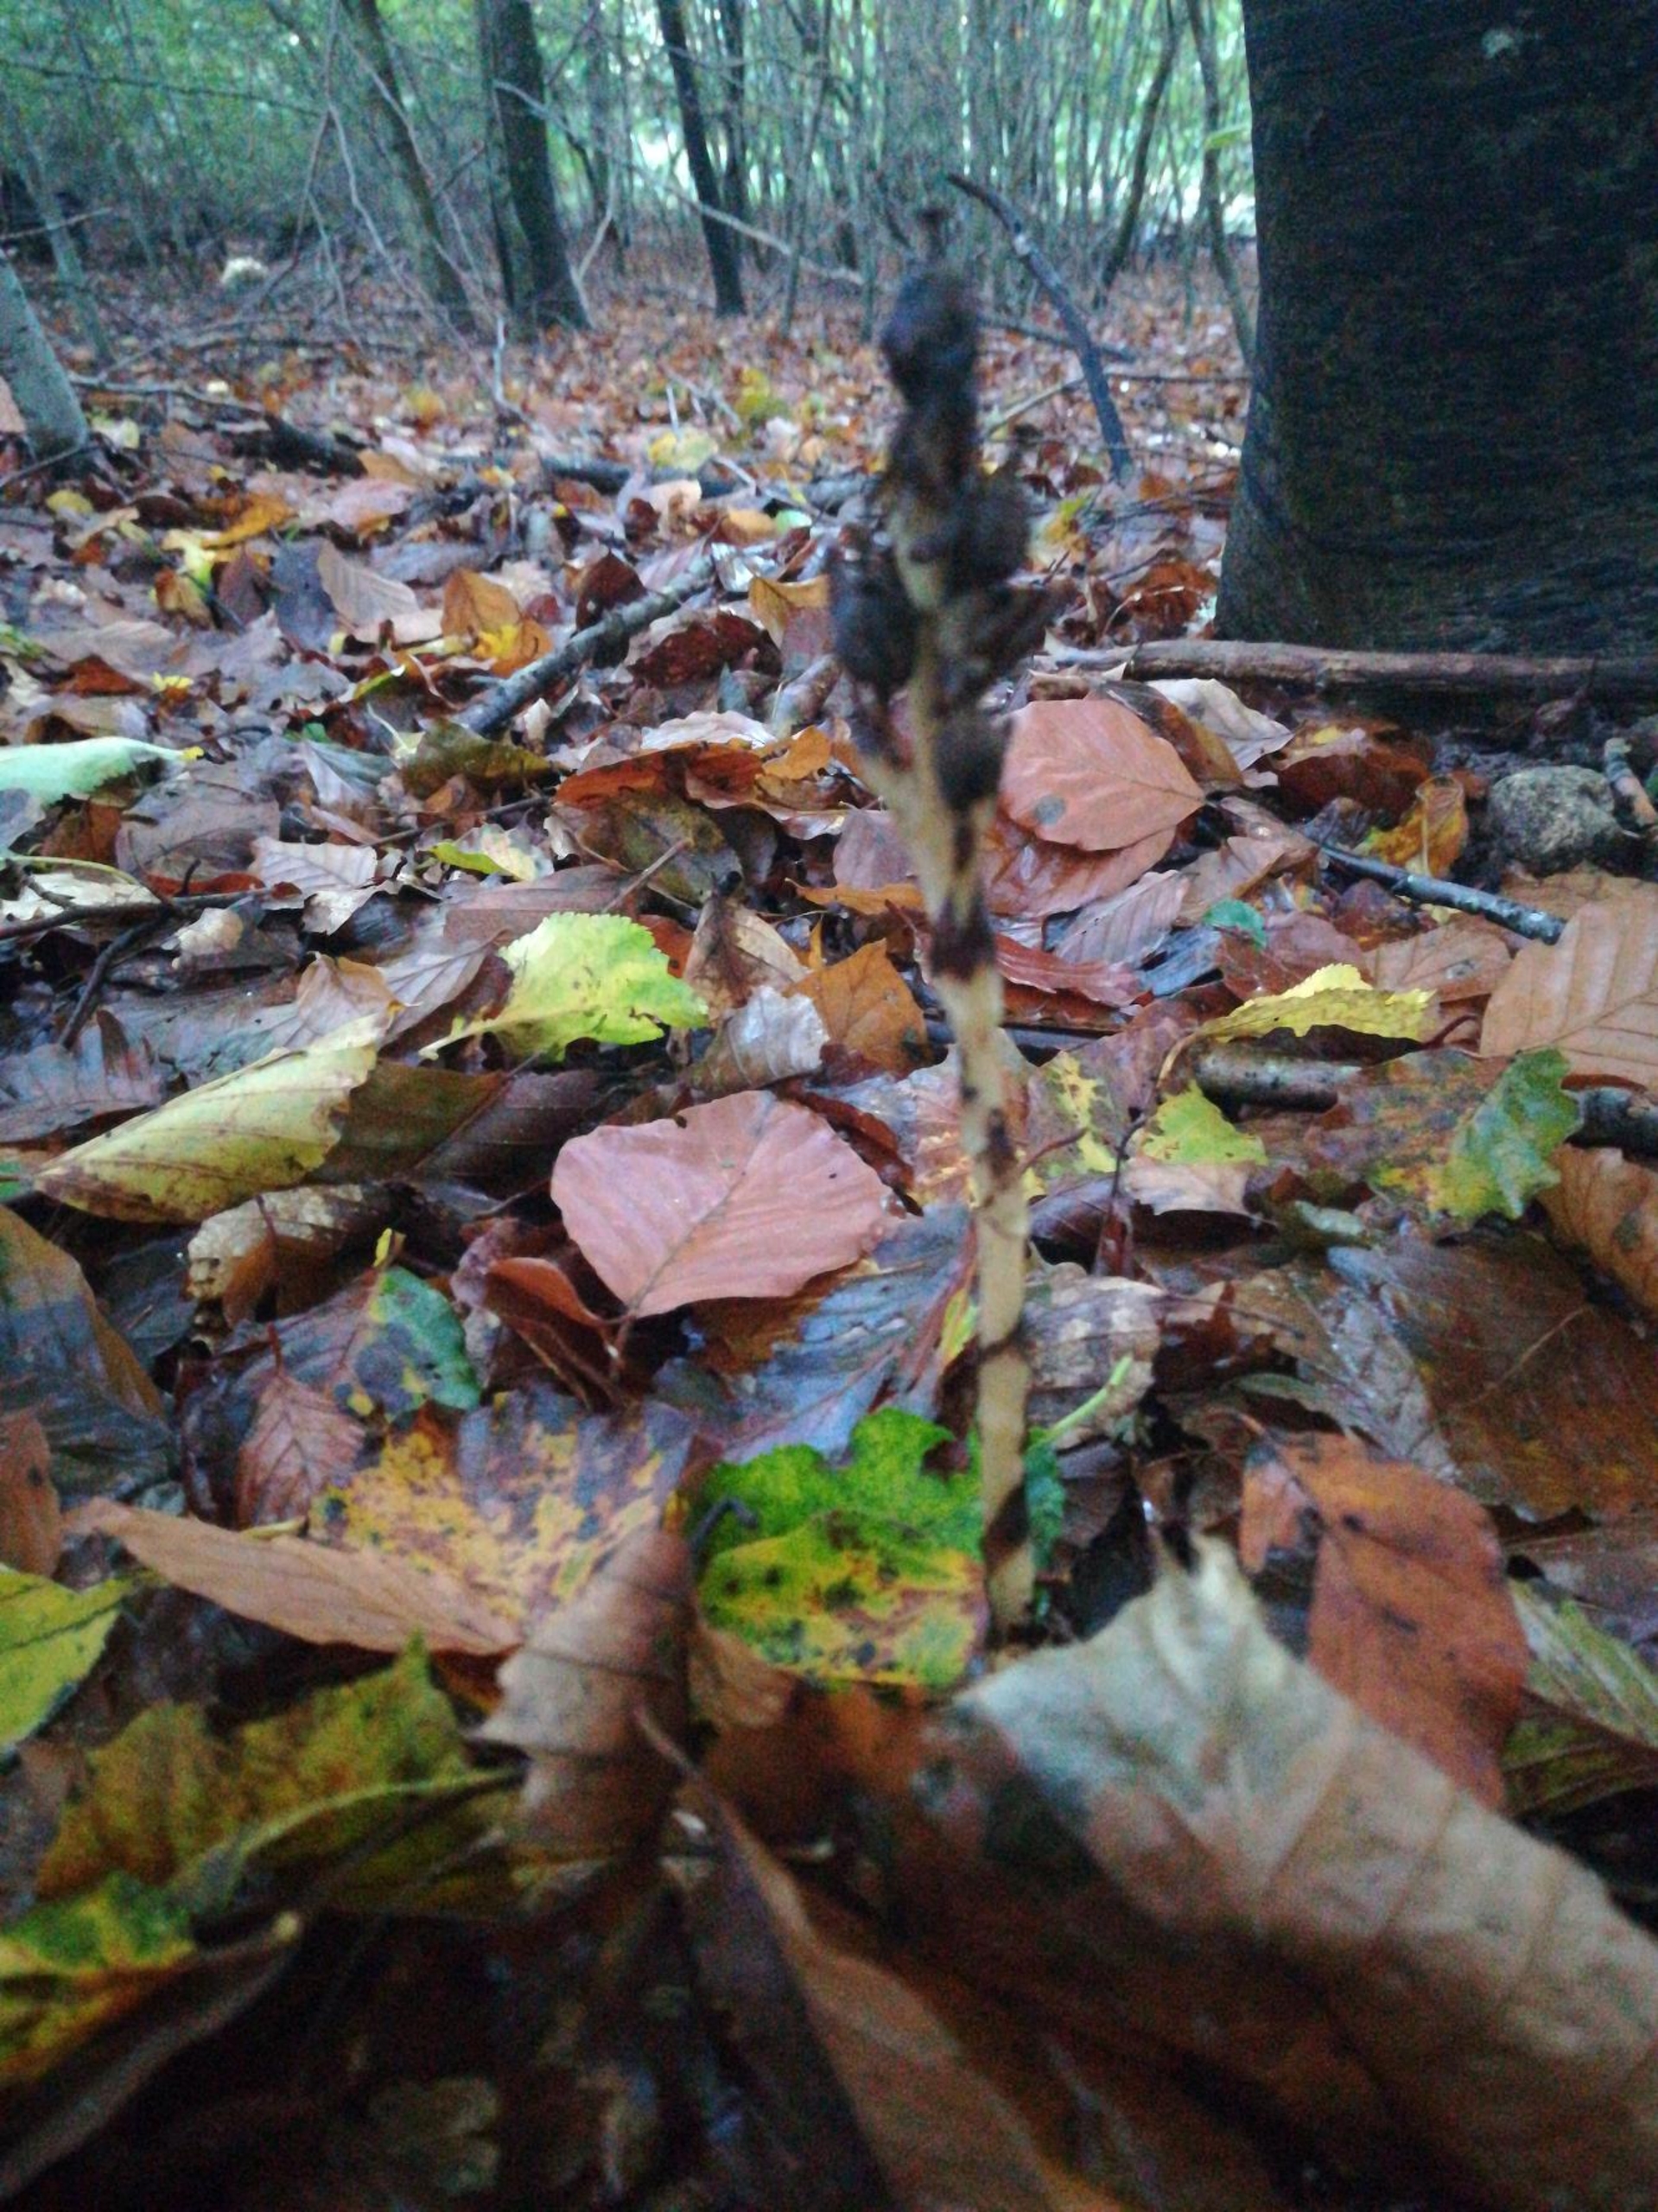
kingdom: Plantae
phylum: Tracheophyta
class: Magnoliopsida
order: Ericales
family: Ericaceae
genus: Hypopitys
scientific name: Hypopitys monotropa
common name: Snylterod
